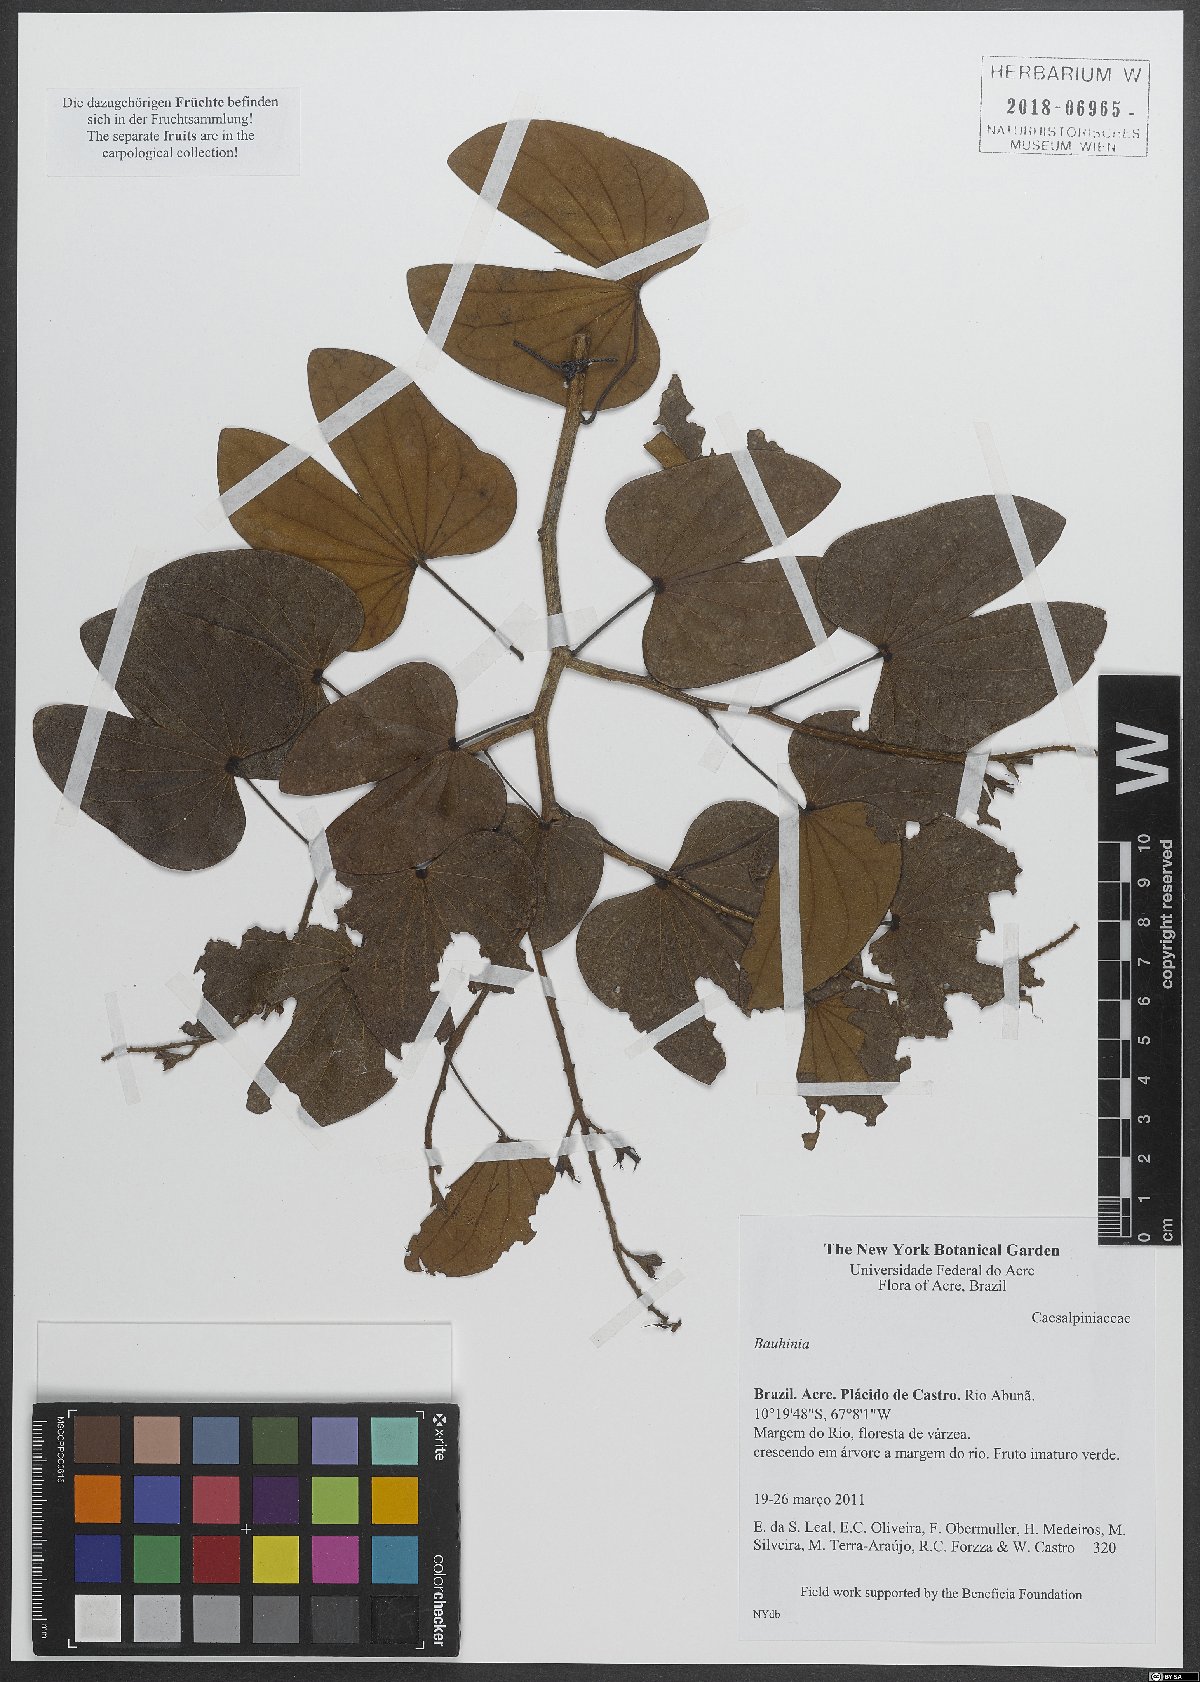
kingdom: Plantae
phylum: Tracheophyta
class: Magnoliopsida
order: Fabales
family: Fabaceae
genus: Bauhinia
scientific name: Bauhinia
